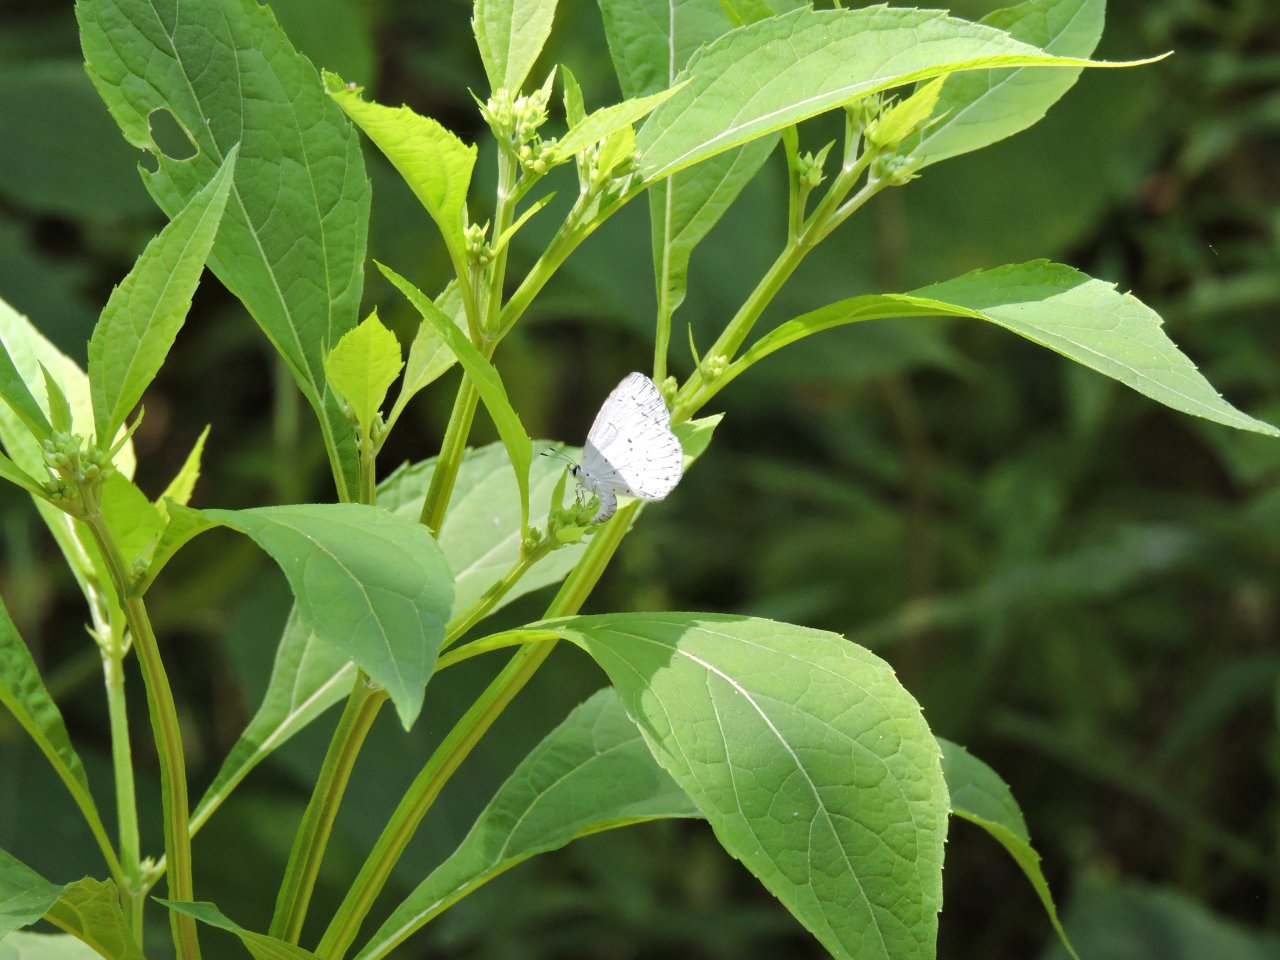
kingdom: Animalia
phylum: Arthropoda
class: Insecta
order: Lepidoptera
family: Lycaenidae
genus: Cyaniris
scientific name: Cyaniris neglecta
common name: Summer Azure
